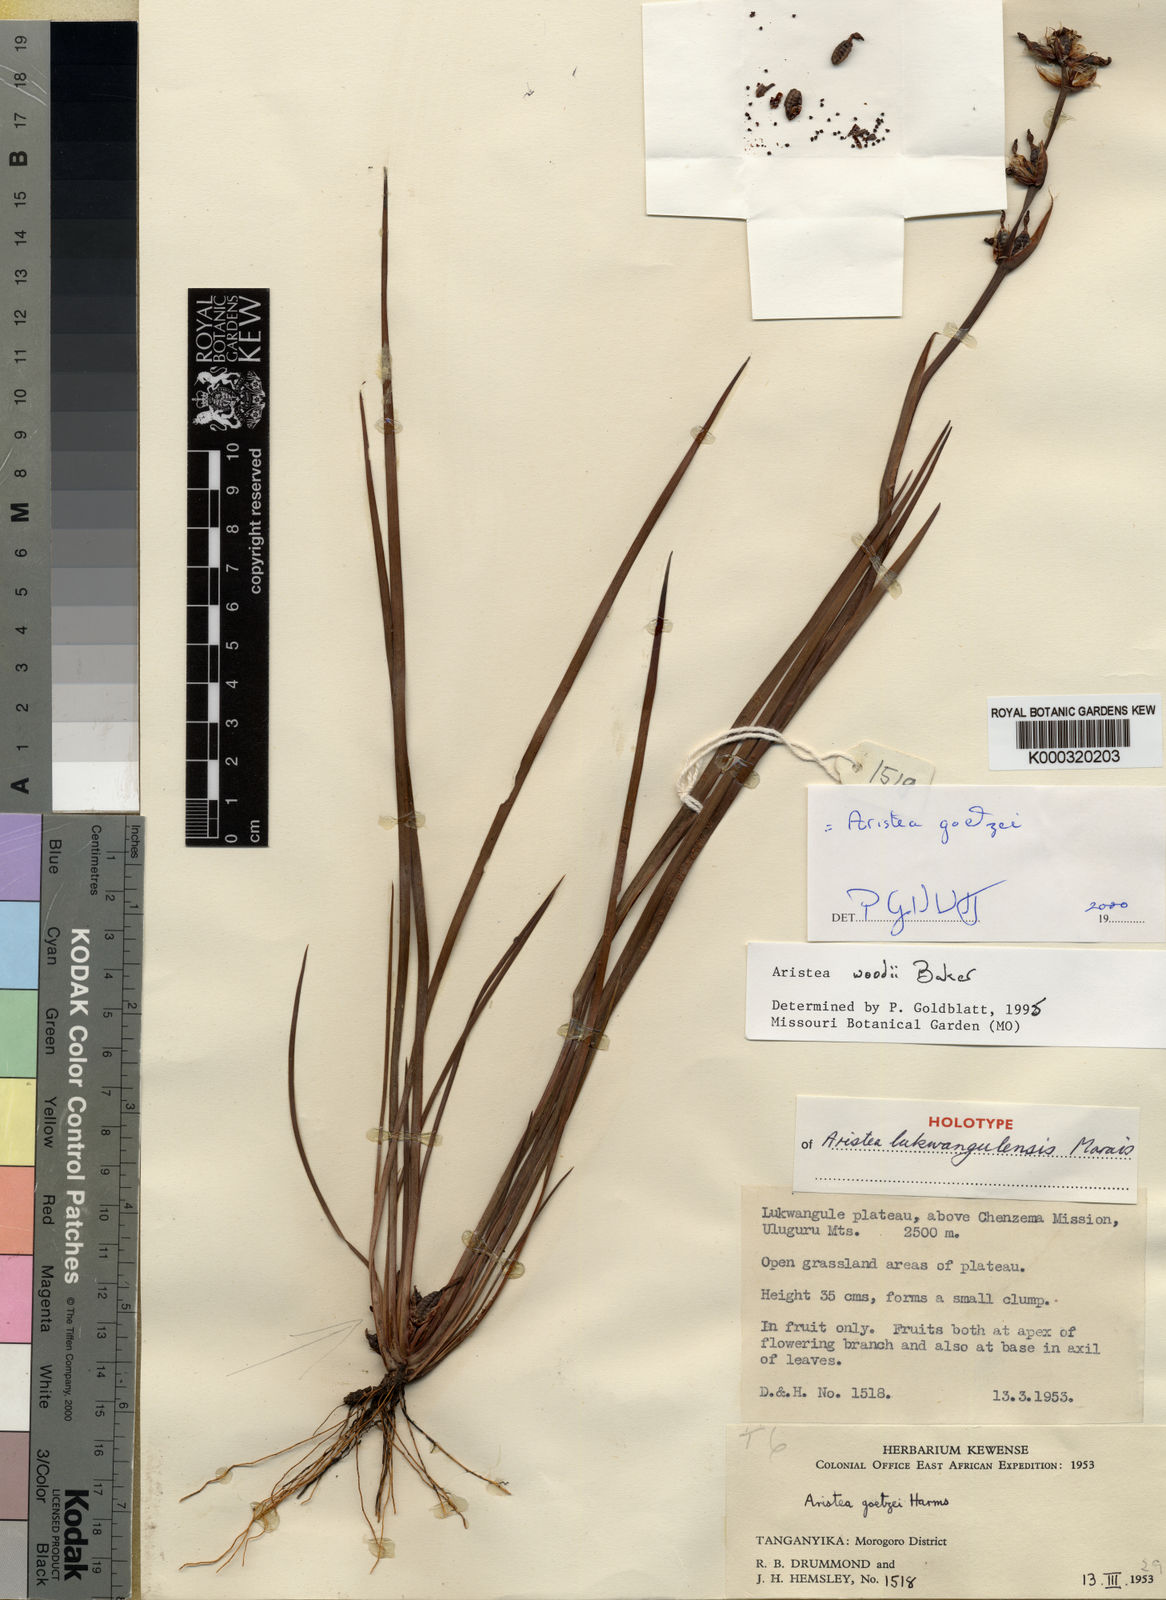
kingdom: Plantae
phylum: Tracheophyta
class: Liliopsida
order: Asparagales
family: Iridaceae
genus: Aristea
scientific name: Aristea goetzei
